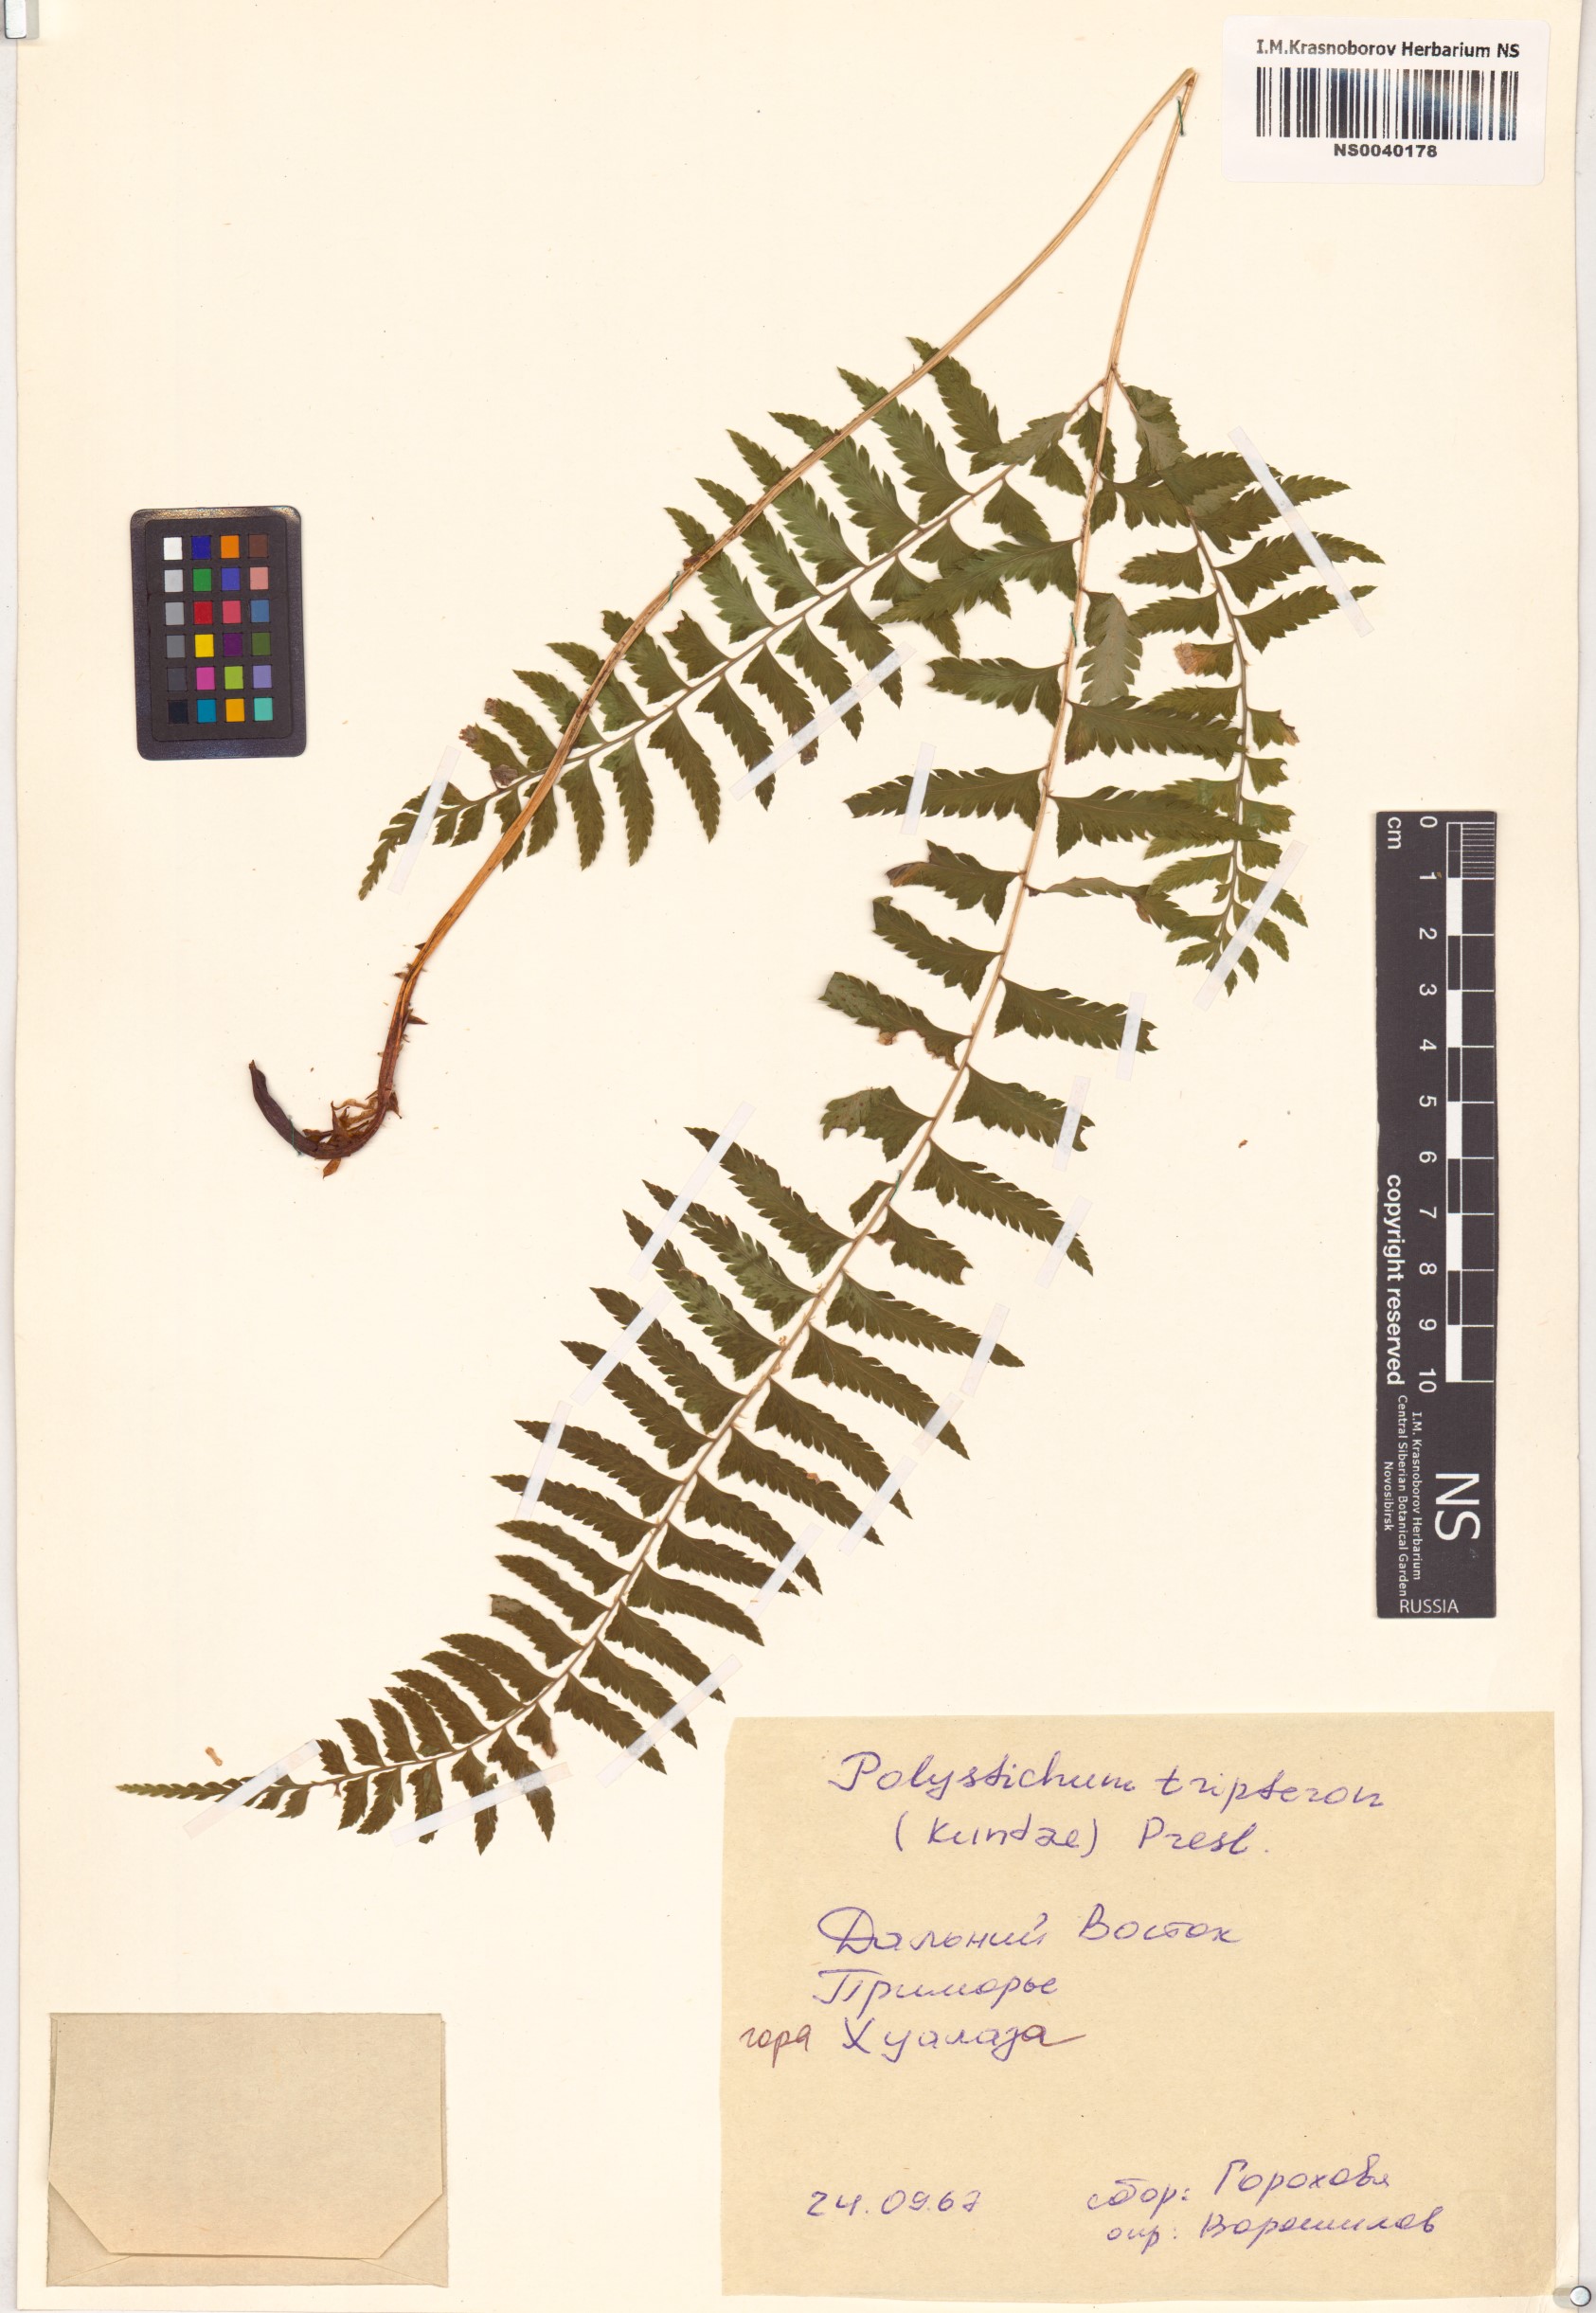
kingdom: Plantae
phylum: Tracheophyta
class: Polypodiopsida
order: Polypodiales
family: Dryopteridaceae
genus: Polystichum
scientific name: Polystichum tripteron
